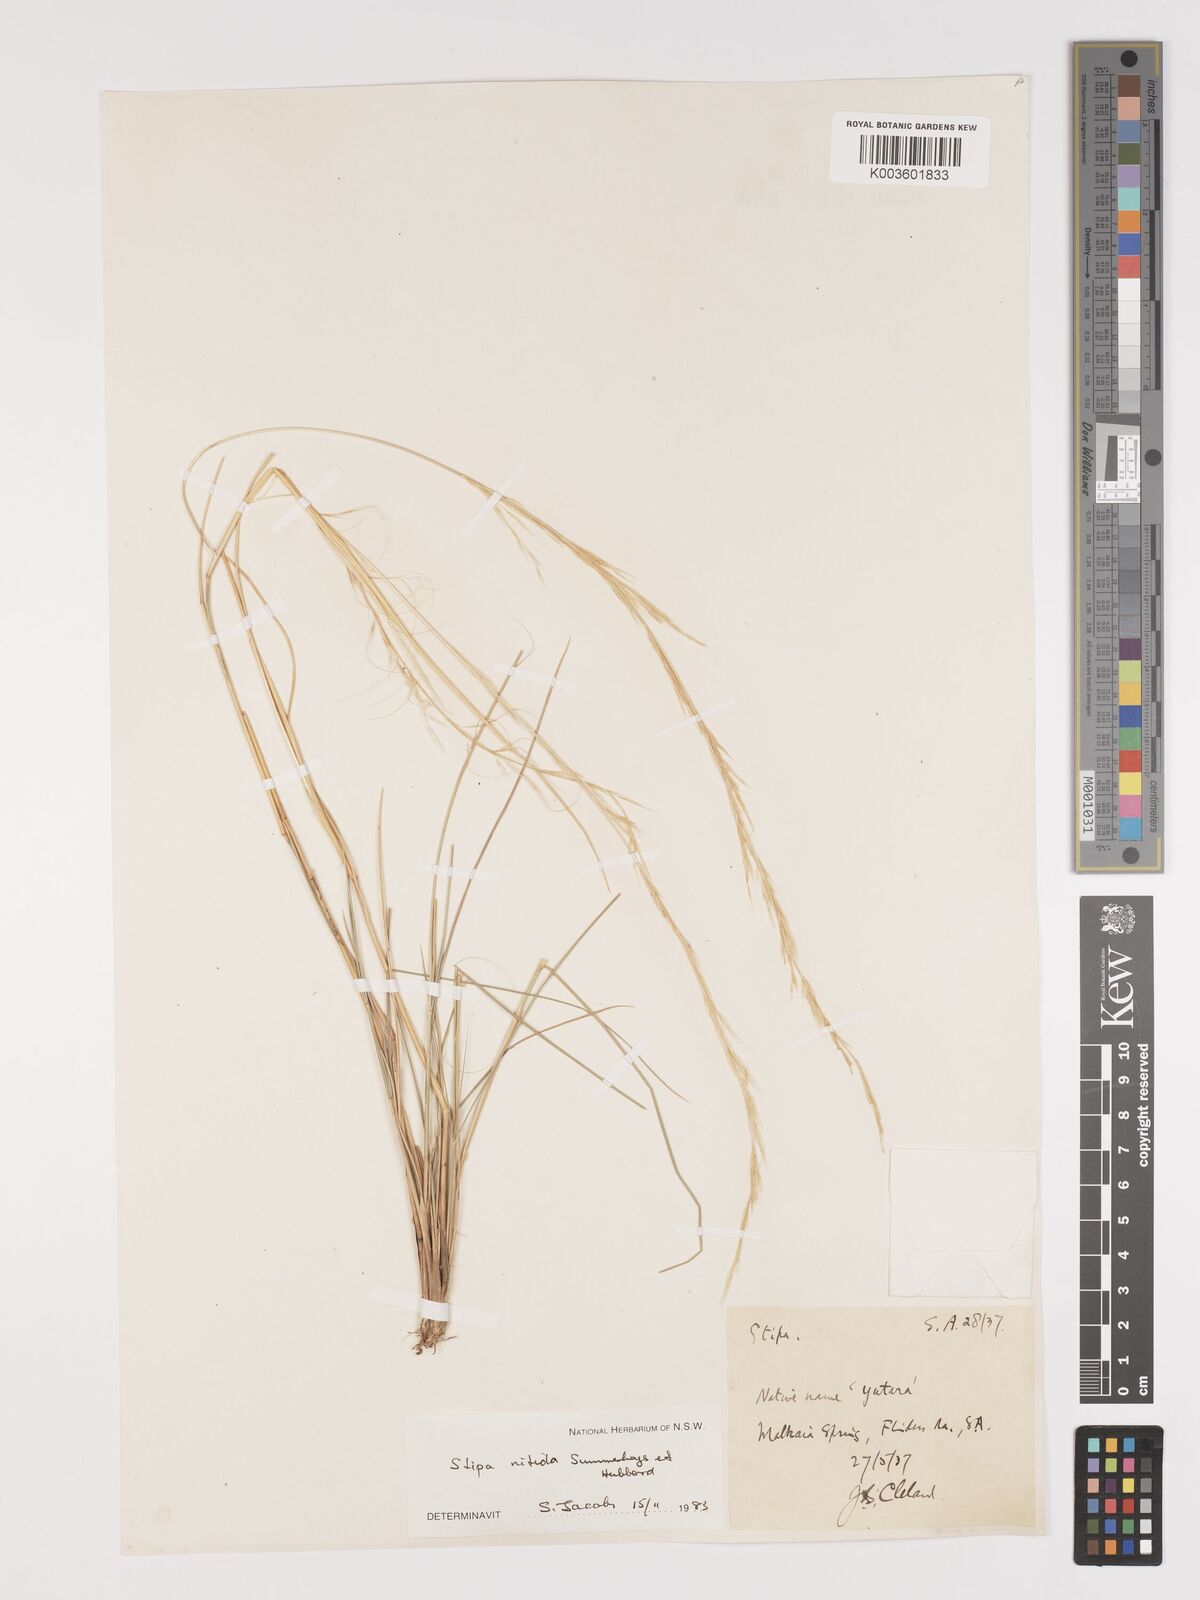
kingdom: Plantae
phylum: Tracheophyta
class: Liliopsida
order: Poales
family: Poaceae
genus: Austrostipa
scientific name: Austrostipa nitida
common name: Balcarra grass
